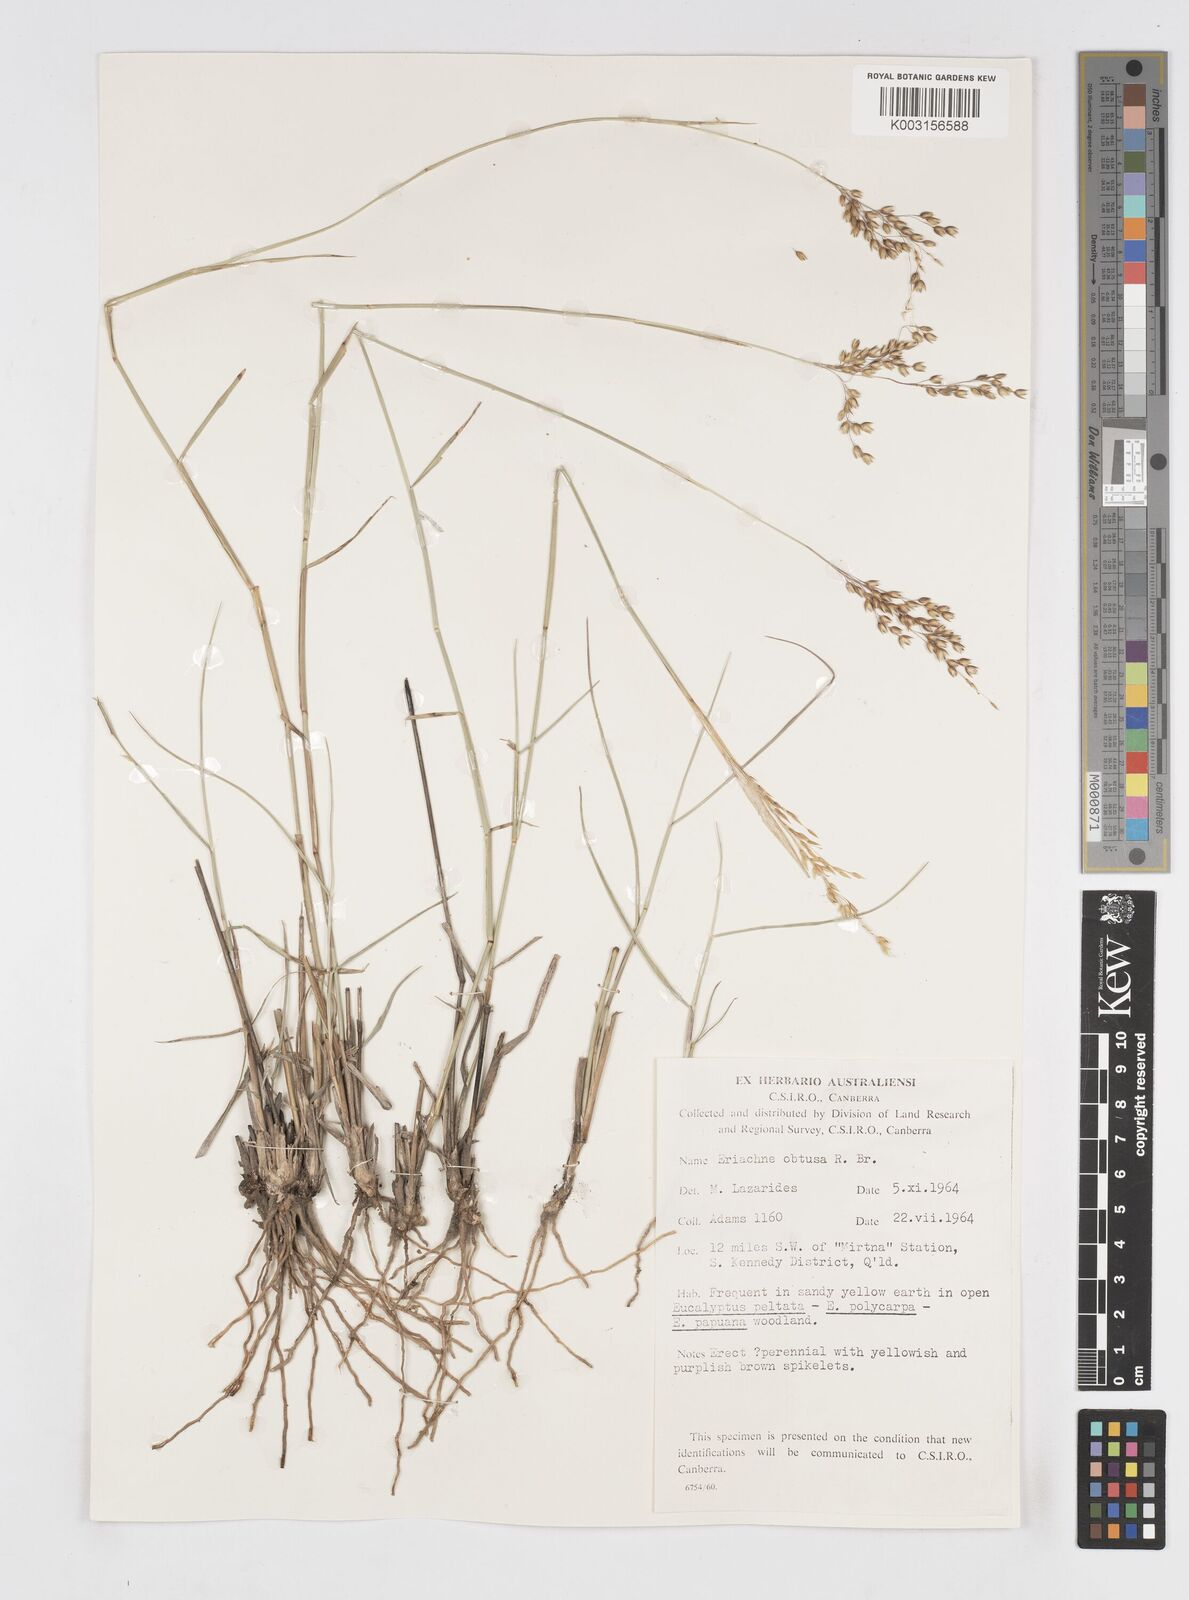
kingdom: Plantae
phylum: Tracheophyta
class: Liliopsida
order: Poales
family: Poaceae
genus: Eriachne
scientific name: Eriachne obtusa
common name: Northern wanderrie grass
